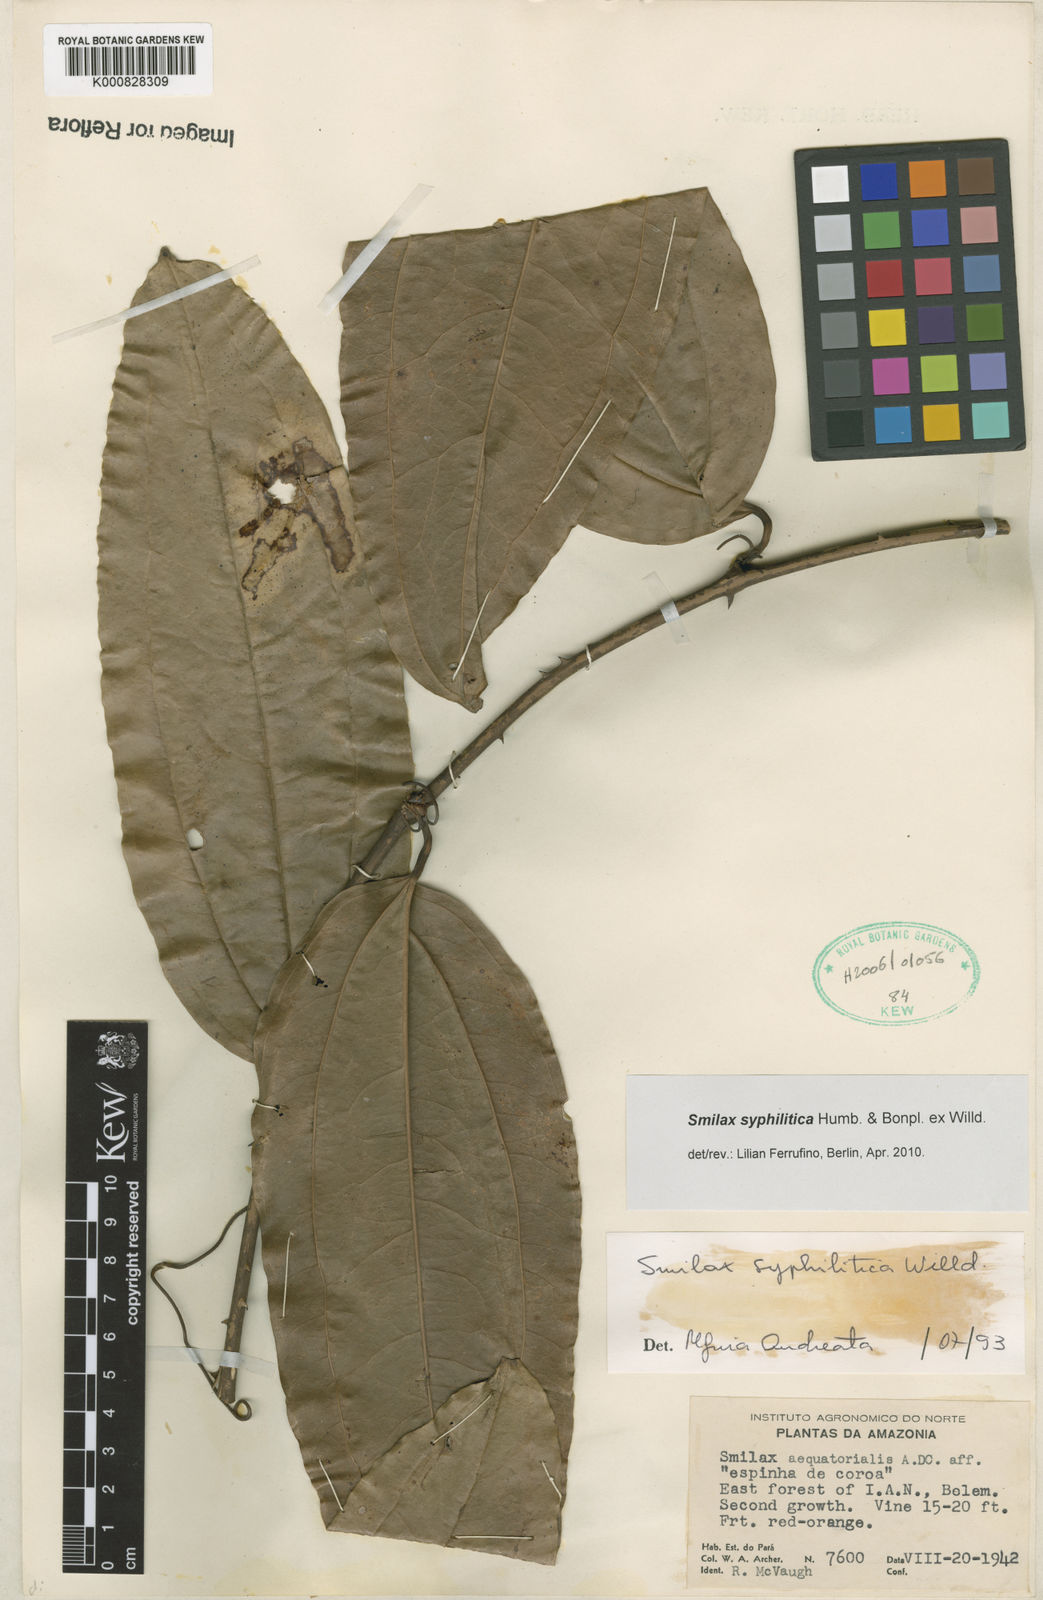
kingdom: Plantae
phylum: Tracheophyta
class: Liliopsida
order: Liliales
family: Smilacaceae
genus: Smilax
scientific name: Smilax siphilitica
